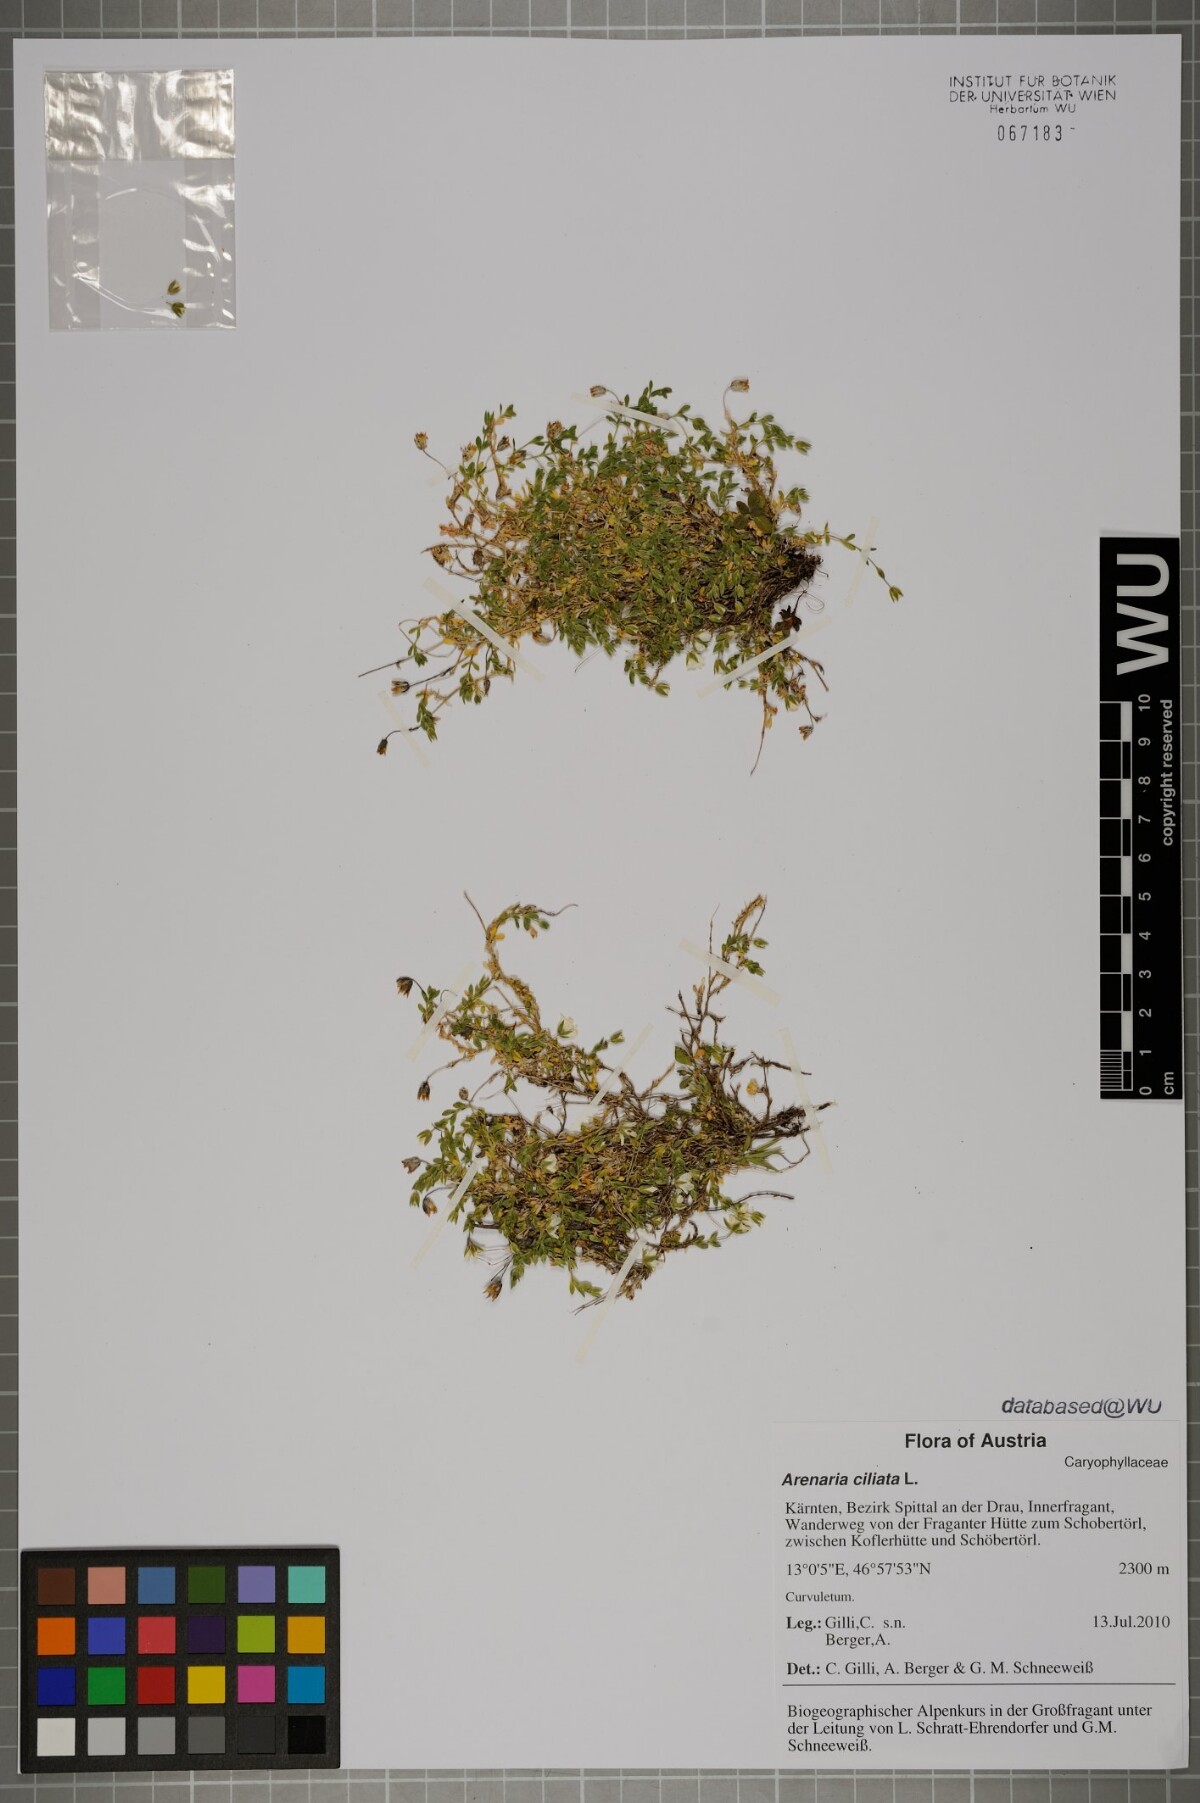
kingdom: Plantae
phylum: Tracheophyta
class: Magnoliopsida
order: Caryophyllales
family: Caryophyllaceae
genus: Arenaria
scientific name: Arenaria ciliata
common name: Fringed sandwort
